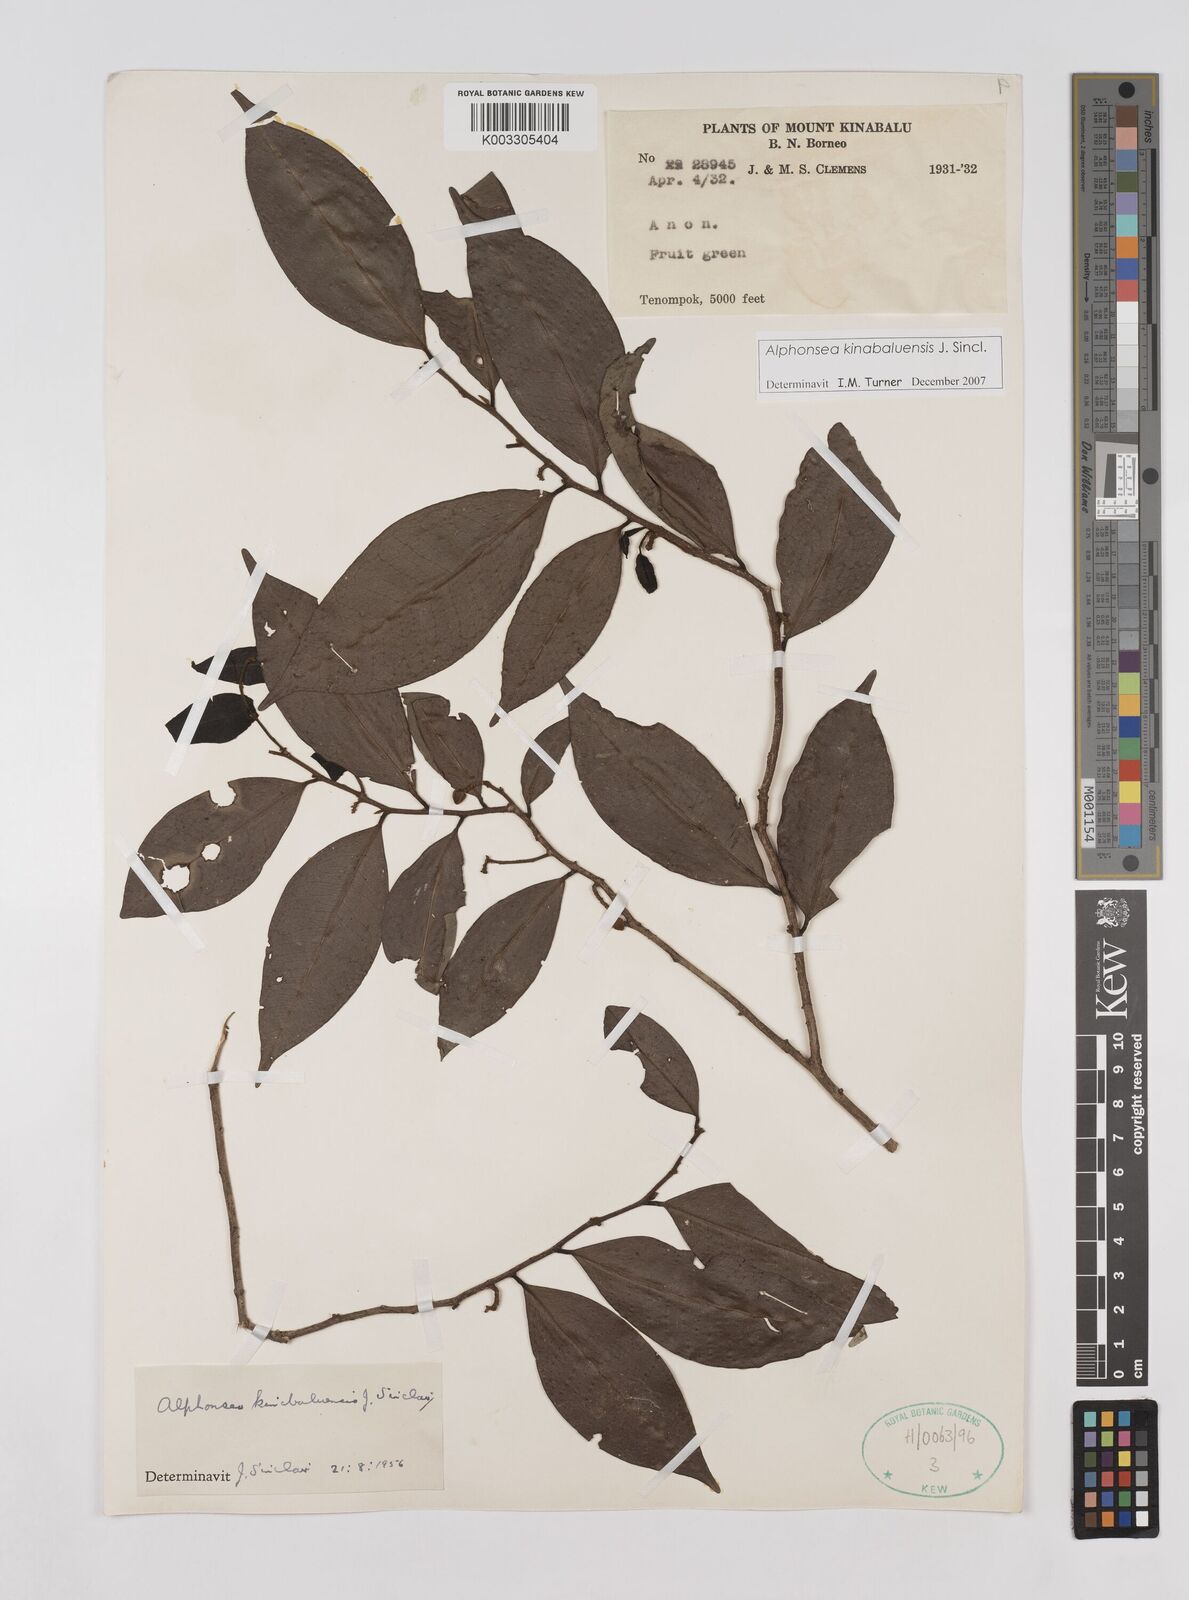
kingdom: Plantae
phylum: Tracheophyta
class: Magnoliopsida
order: Magnoliales
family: Annonaceae
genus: Alphonsea
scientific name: Alphonsea kinabaluensis
